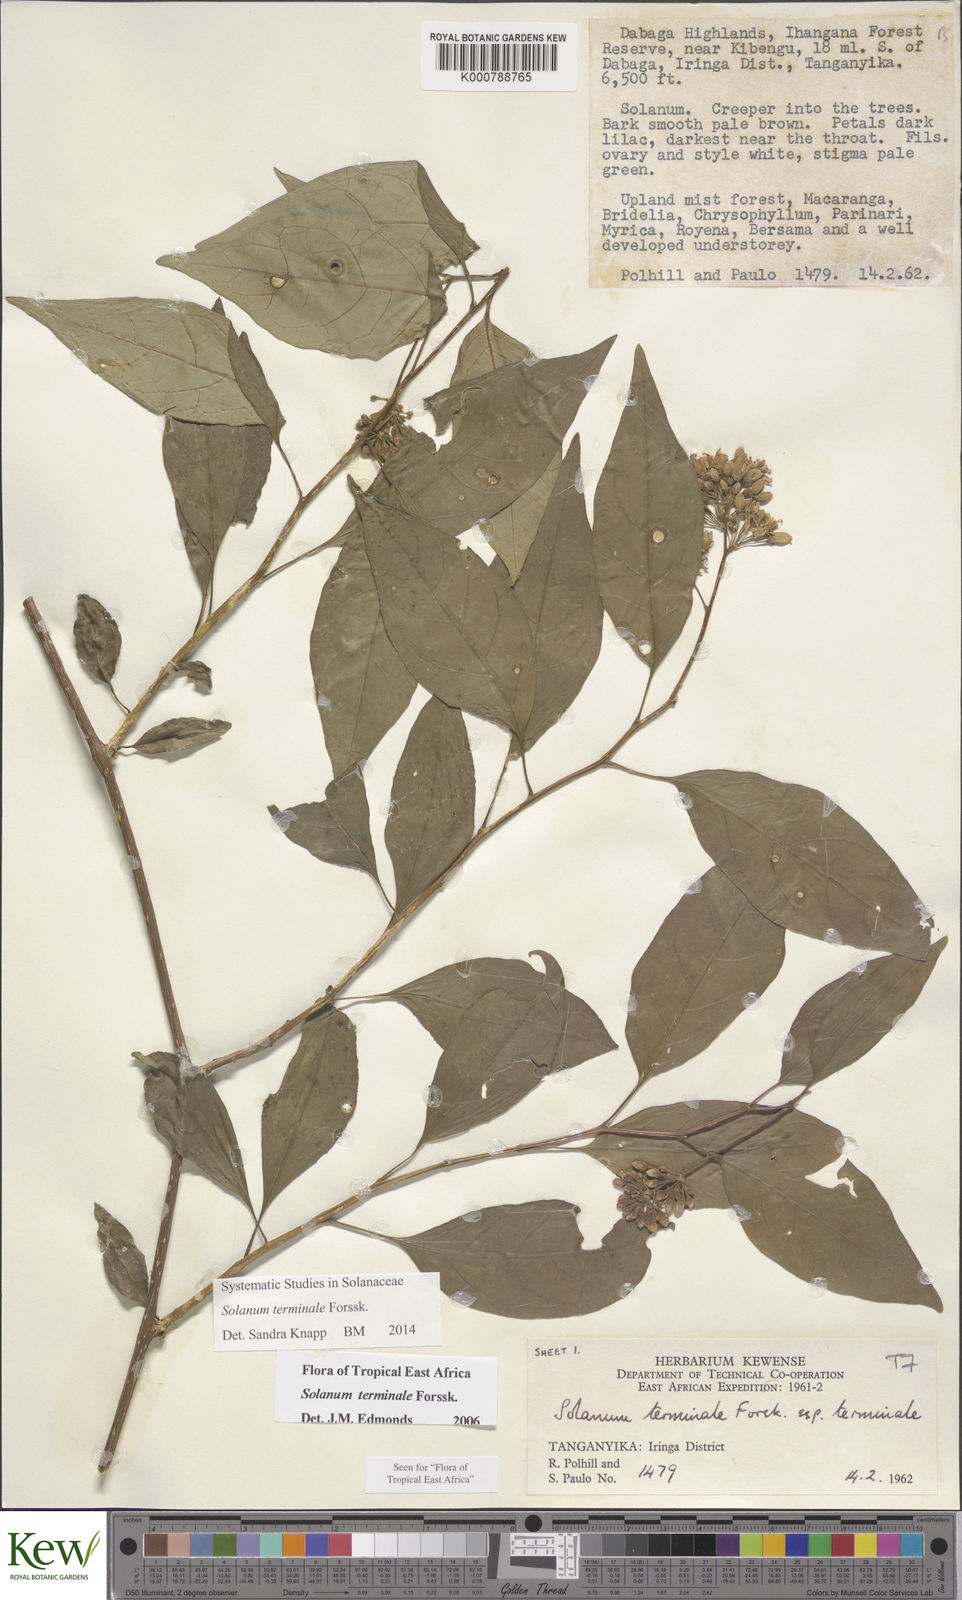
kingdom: Plantae
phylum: Tracheophyta
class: Magnoliopsida
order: Solanales
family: Solanaceae
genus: Solanum
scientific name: Solanum terminale
